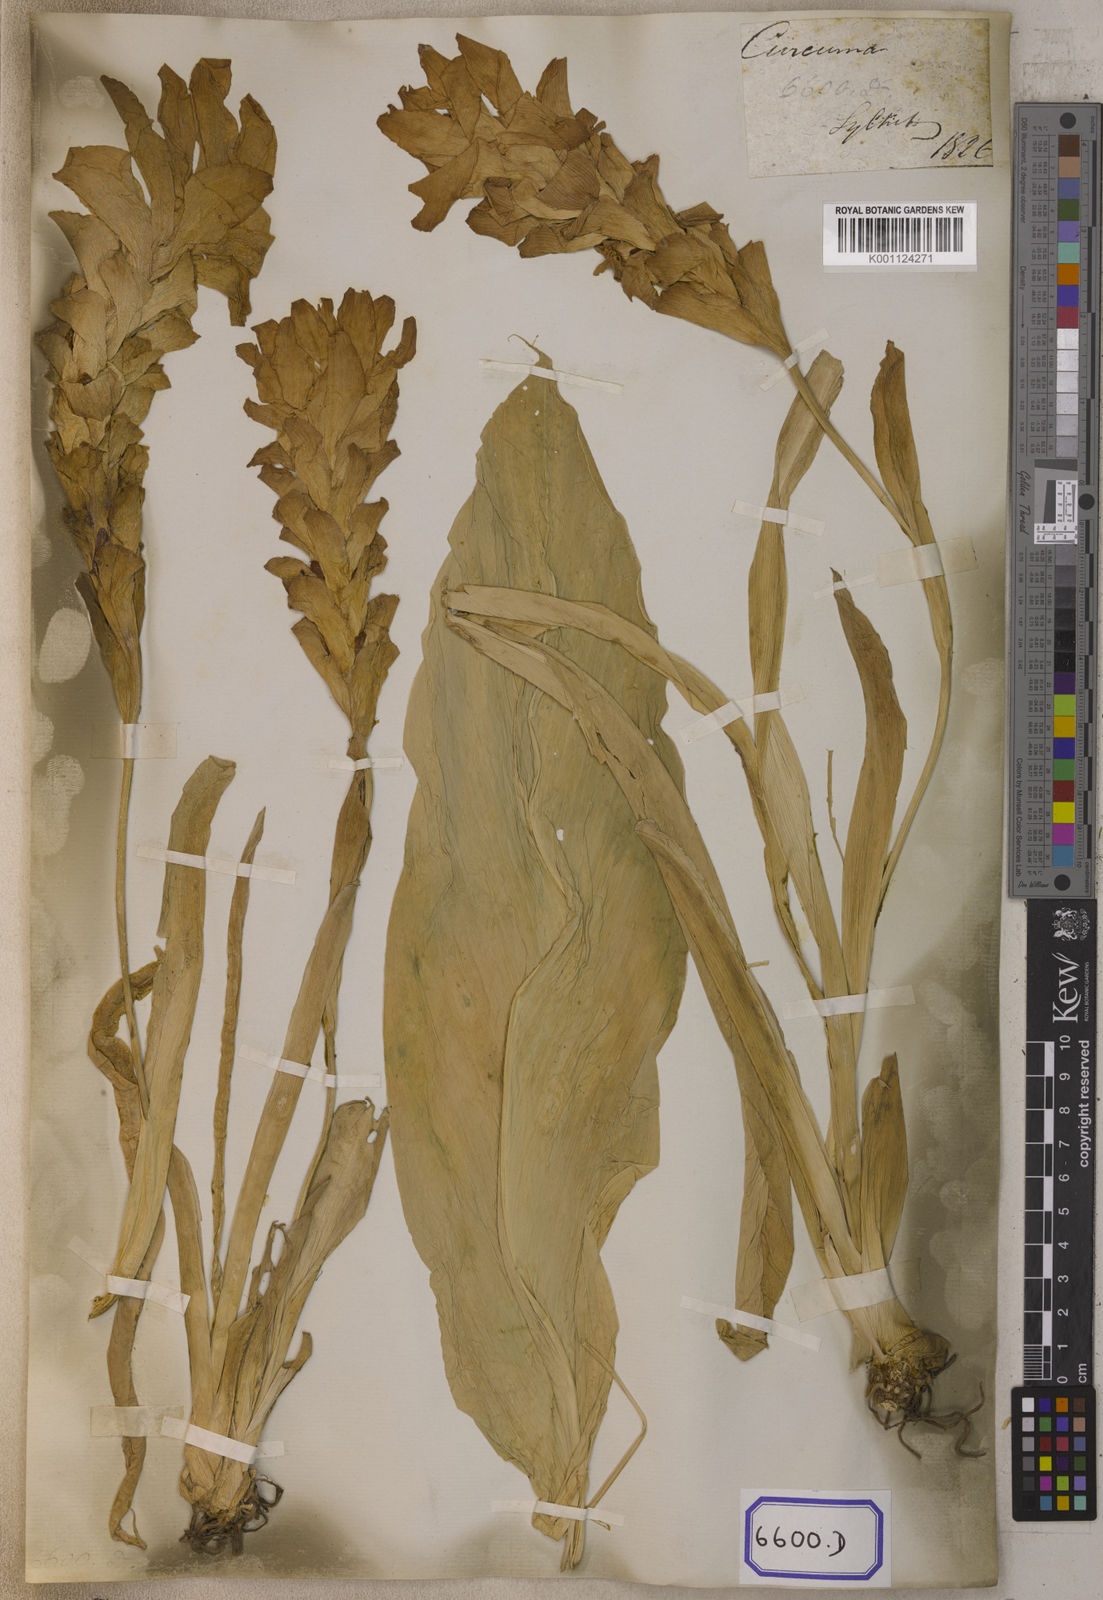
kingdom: Plantae
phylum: Tracheophyta
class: Liliopsida
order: Zingiberales
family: Zingiberaceae
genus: Curcuma
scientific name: Curcuma euchroma
